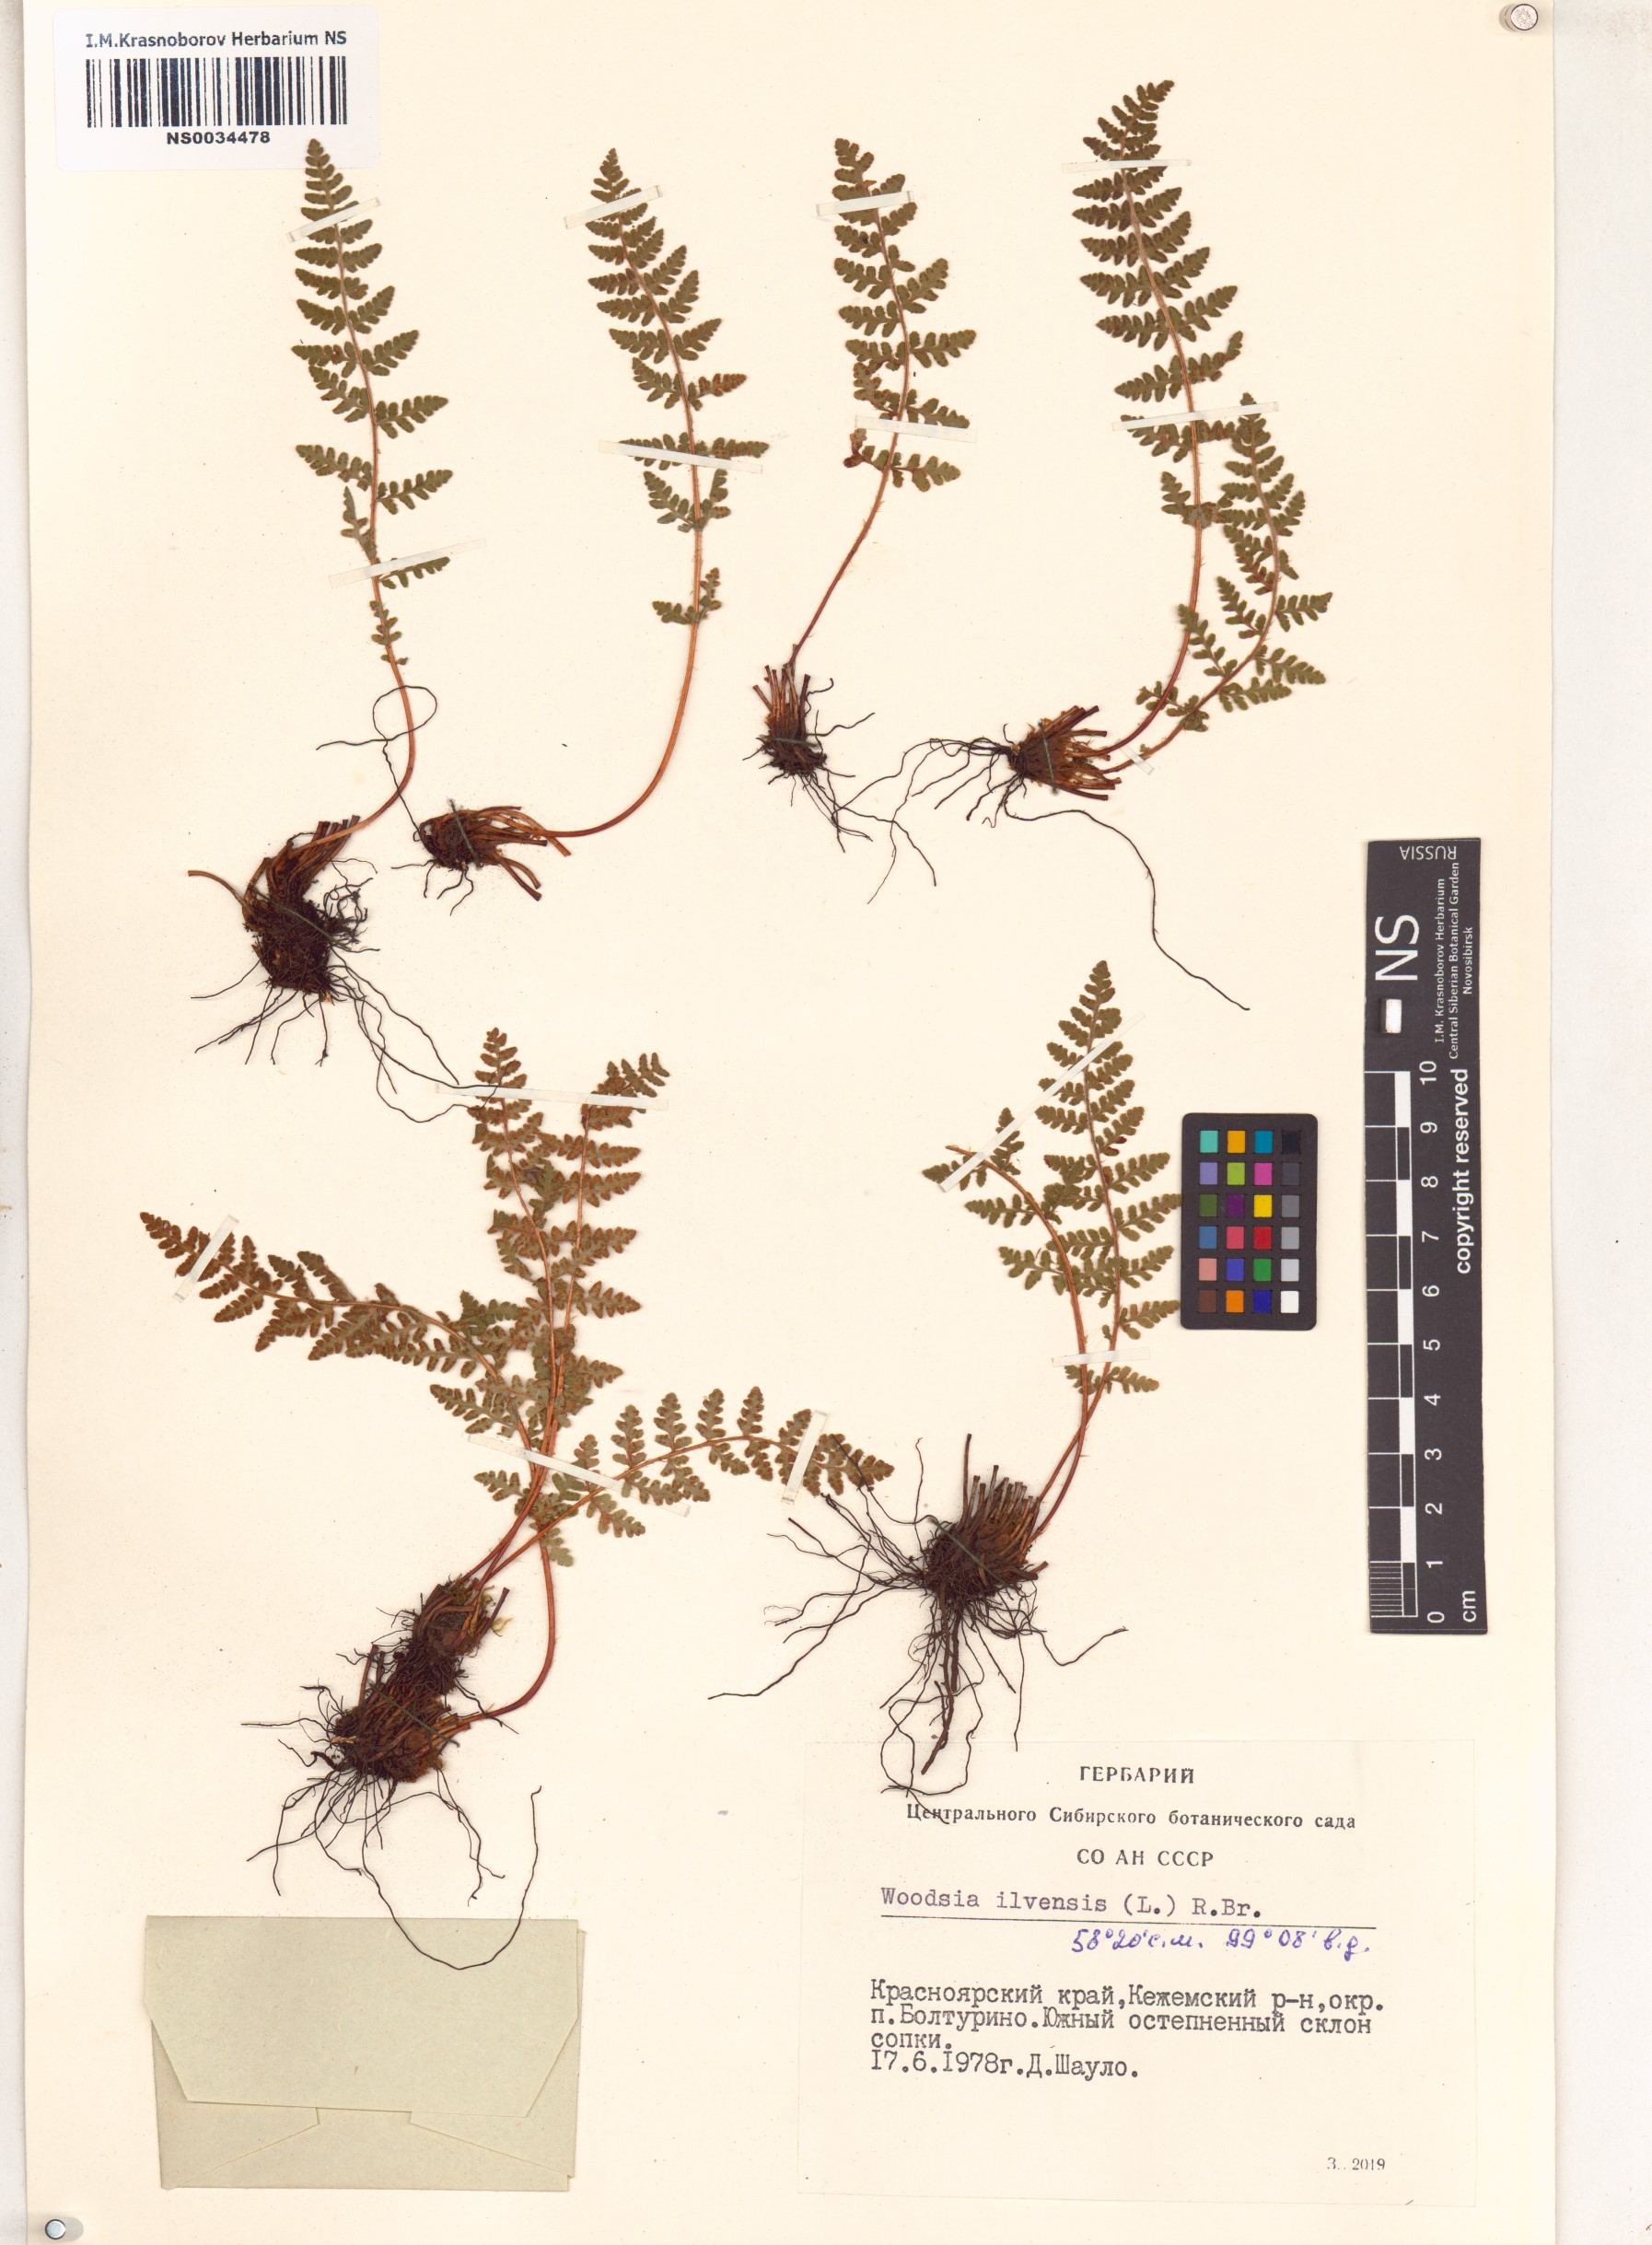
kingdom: Plantae
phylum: Tracheophyta
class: Polypodiopsida
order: Polypodiales
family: Woodsiaceae
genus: Woodsia
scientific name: Woodsia ilvensis
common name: Fragrant woodsia
